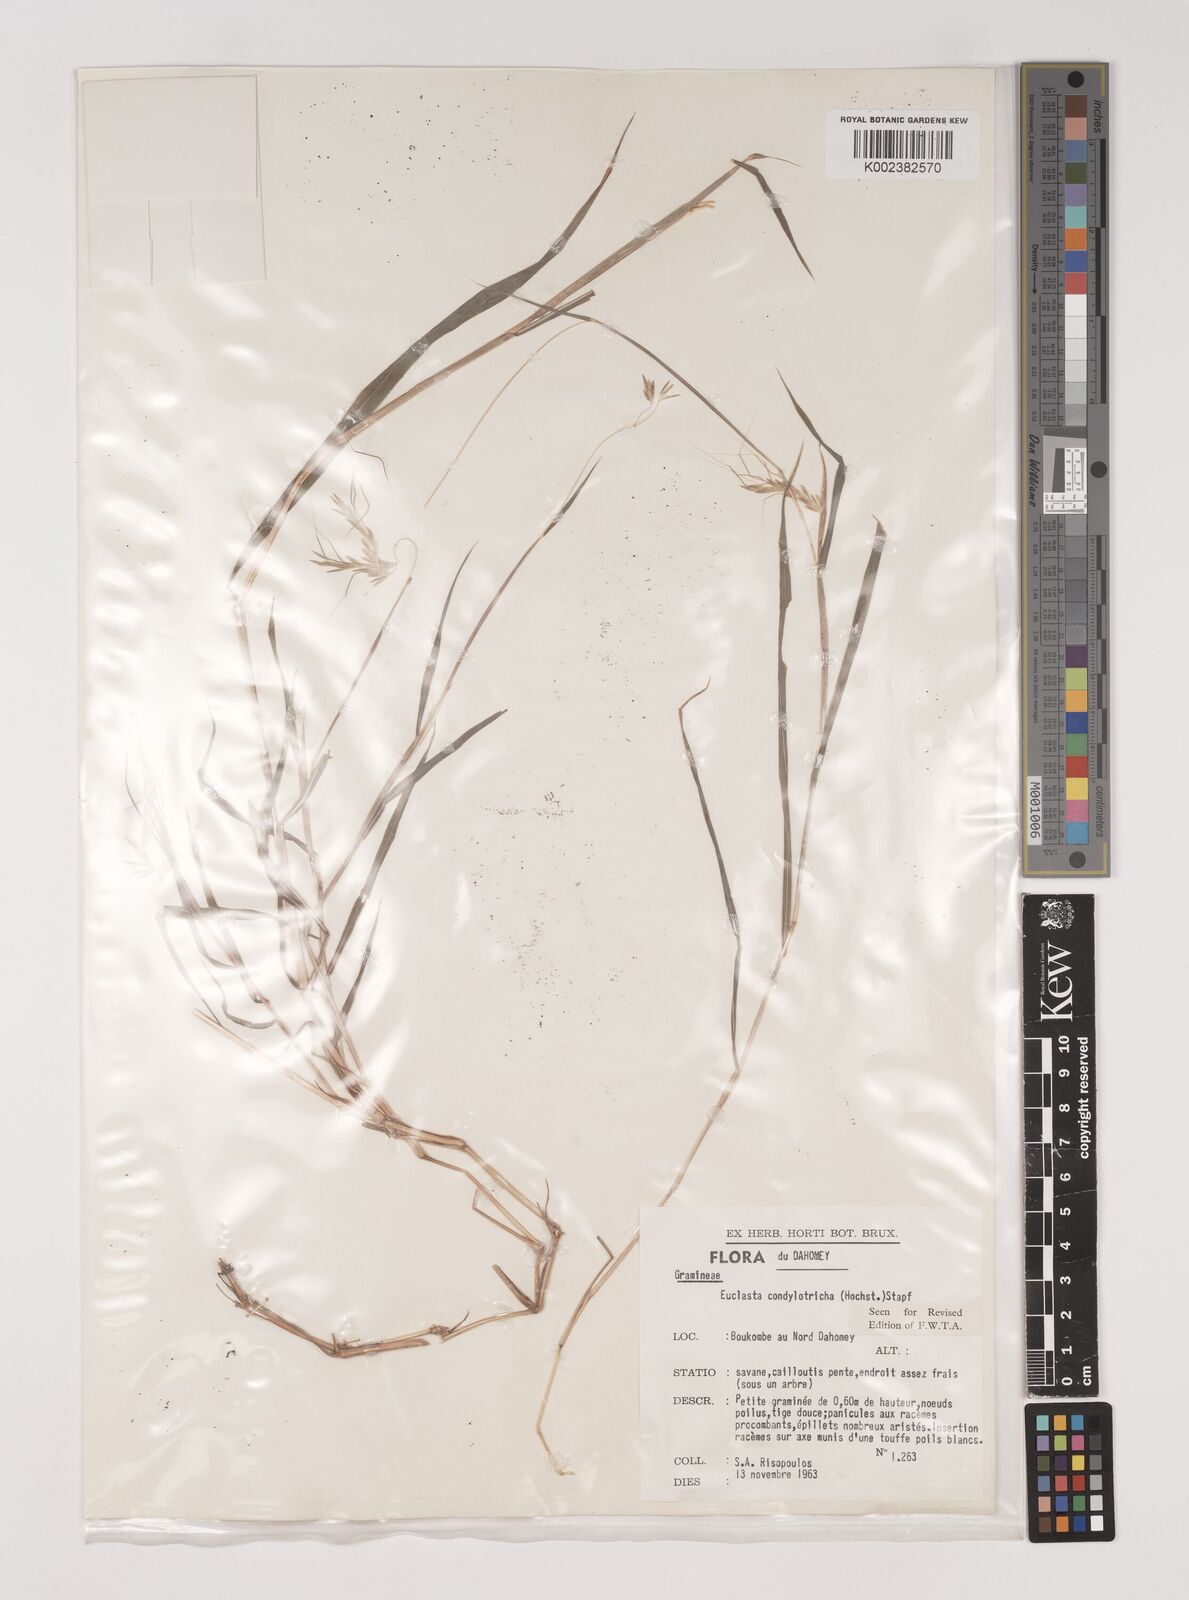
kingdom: Plantae
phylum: Tracheophyta
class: Liliopsida
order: Poales
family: Poaceae
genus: Euclasta
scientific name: Euclasta condylotricha
